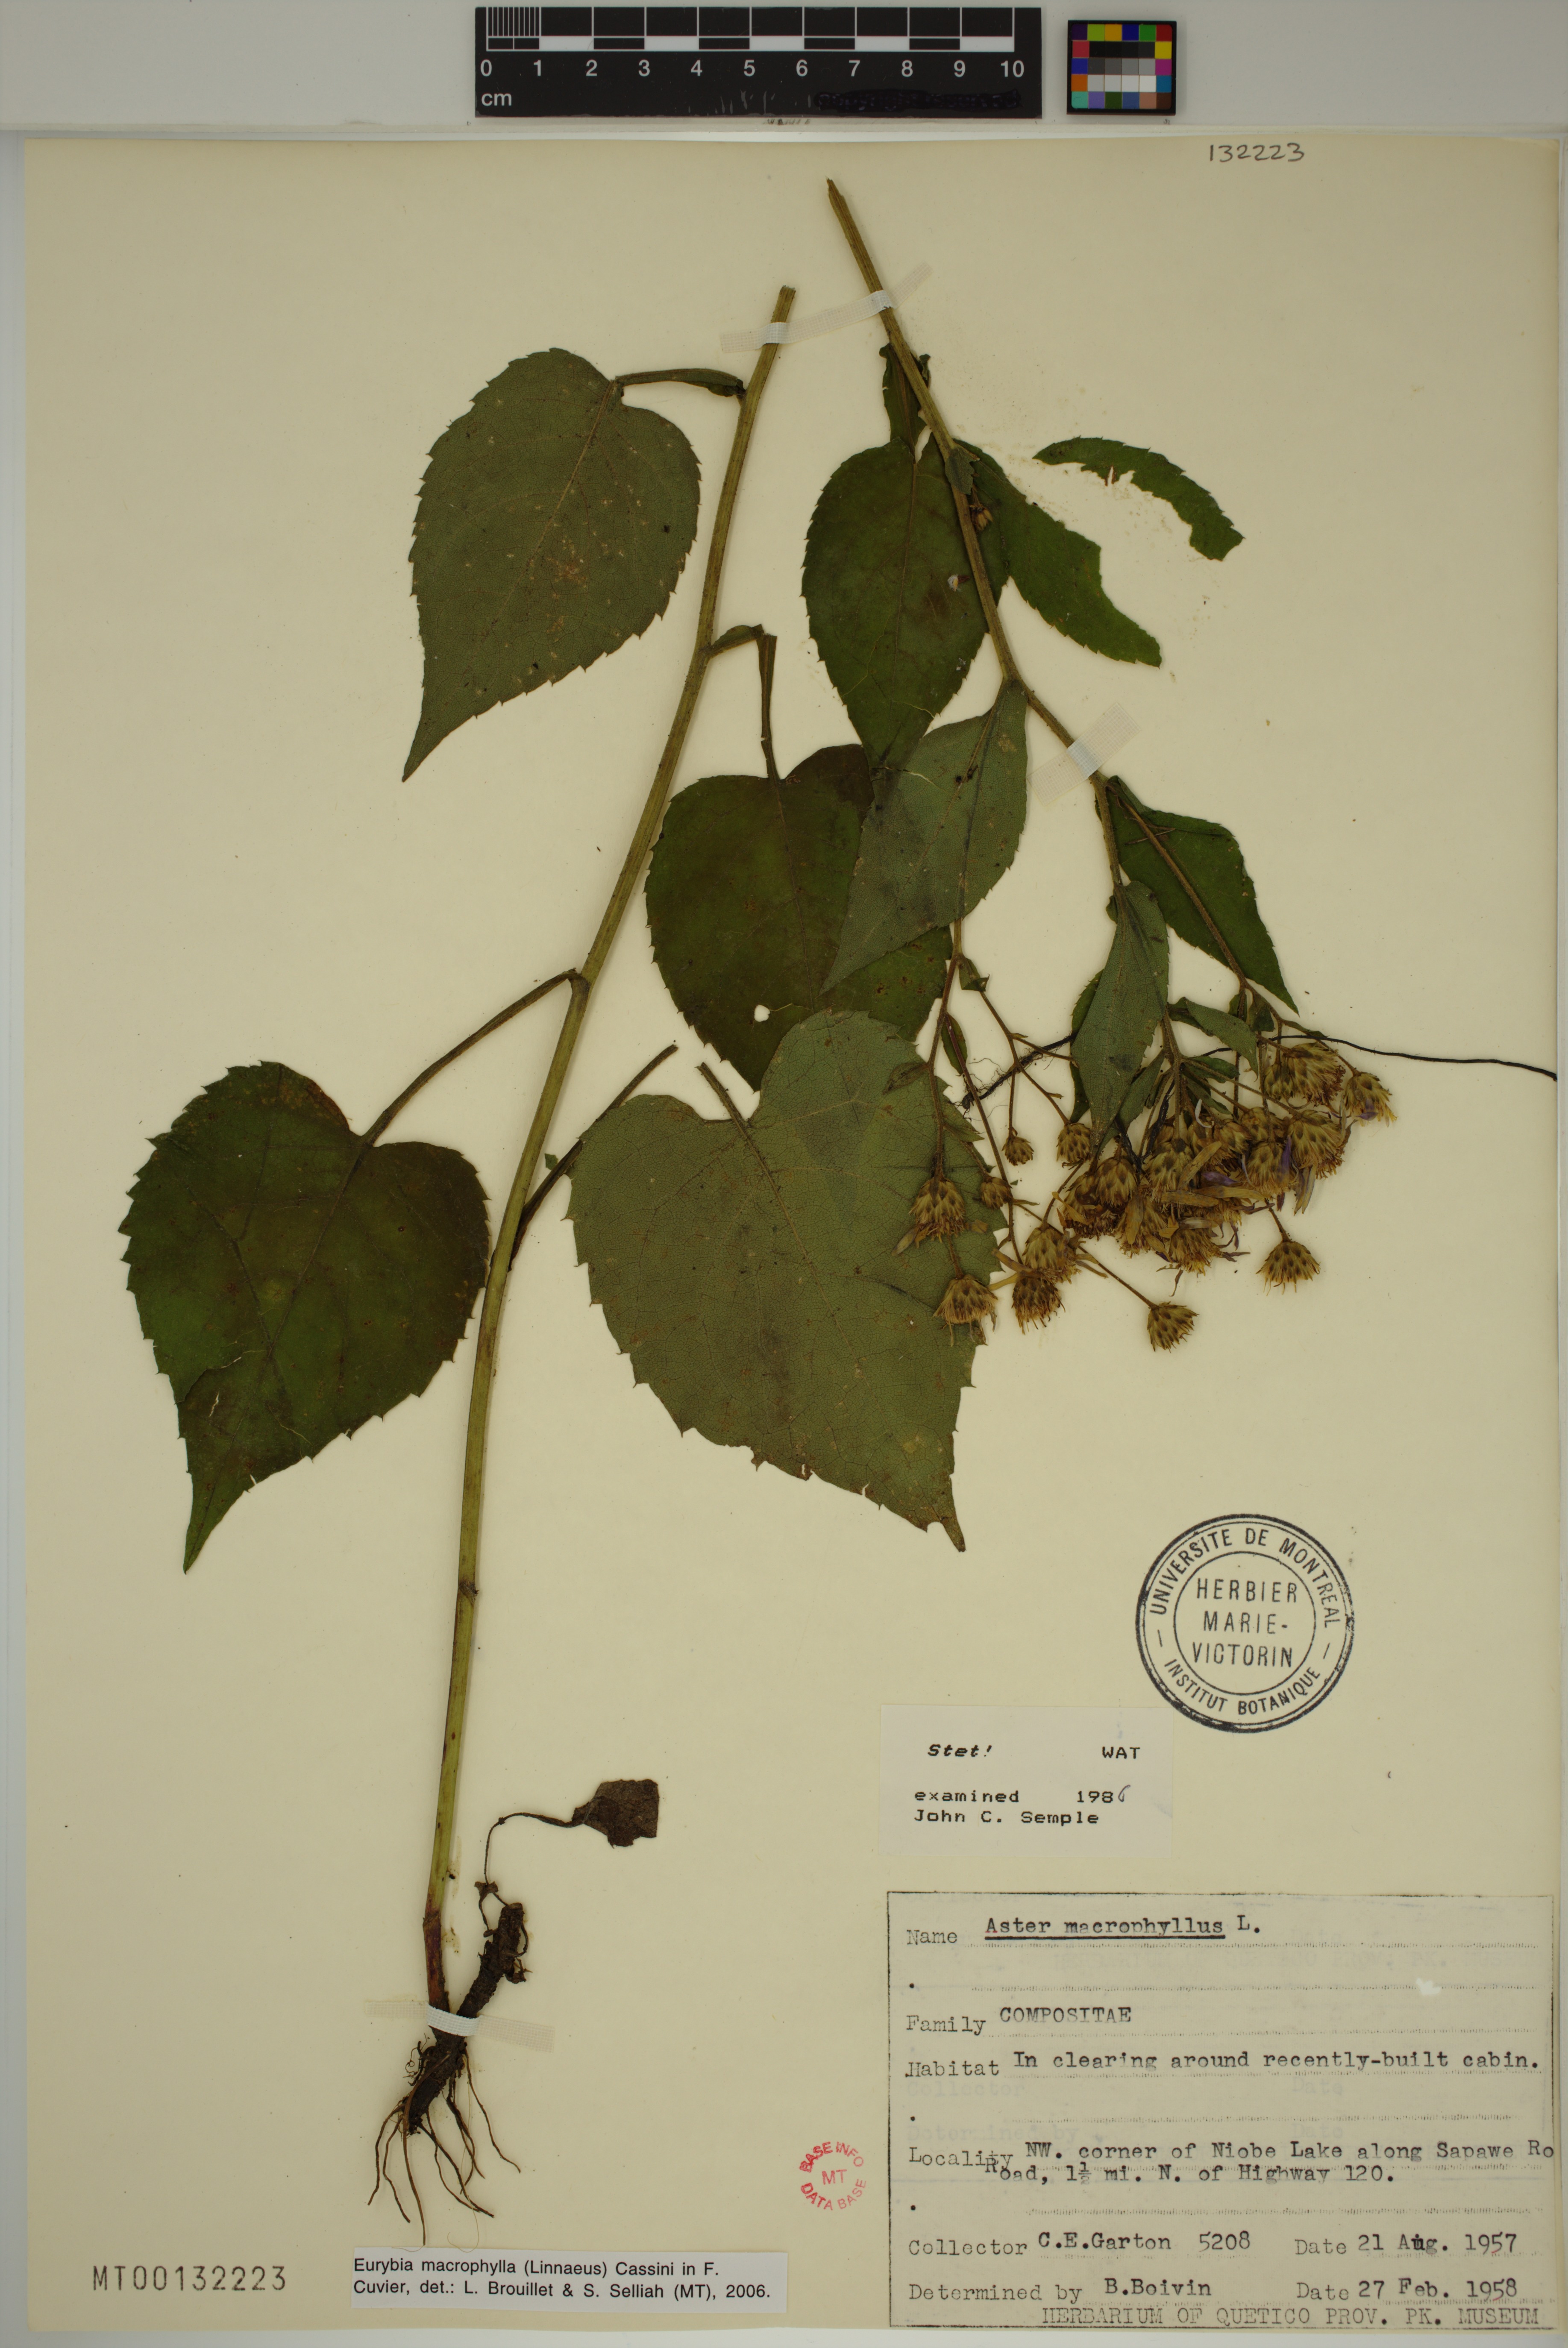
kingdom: Plantae
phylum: Tracheophyta
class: Magnoliopsida
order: Asterales
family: Asteraceae
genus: Eurybia
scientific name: Eurybia macrophylla
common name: Big-leaved aster
